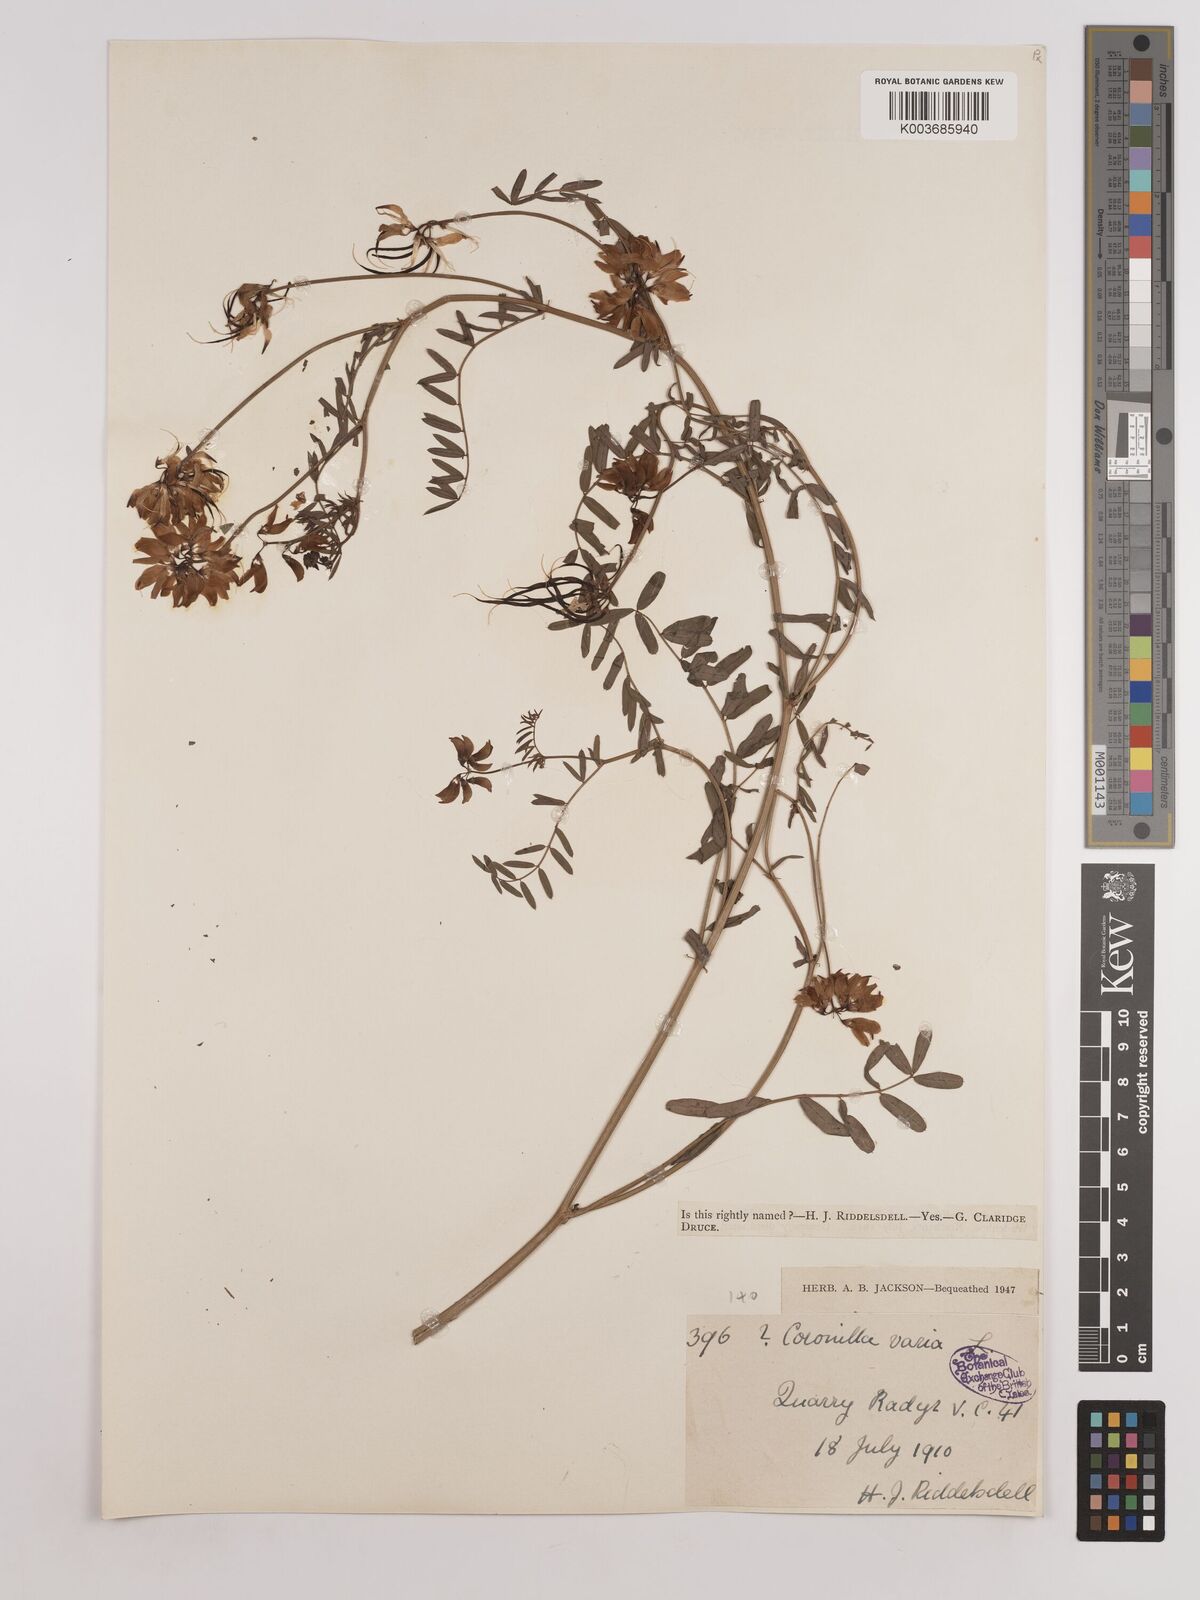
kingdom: Plantae
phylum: Tracheophyta
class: Magnoliopsida
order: Fabales
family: Fabaceae
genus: Coronilla
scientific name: Coronilla varia
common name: Crownvetch
